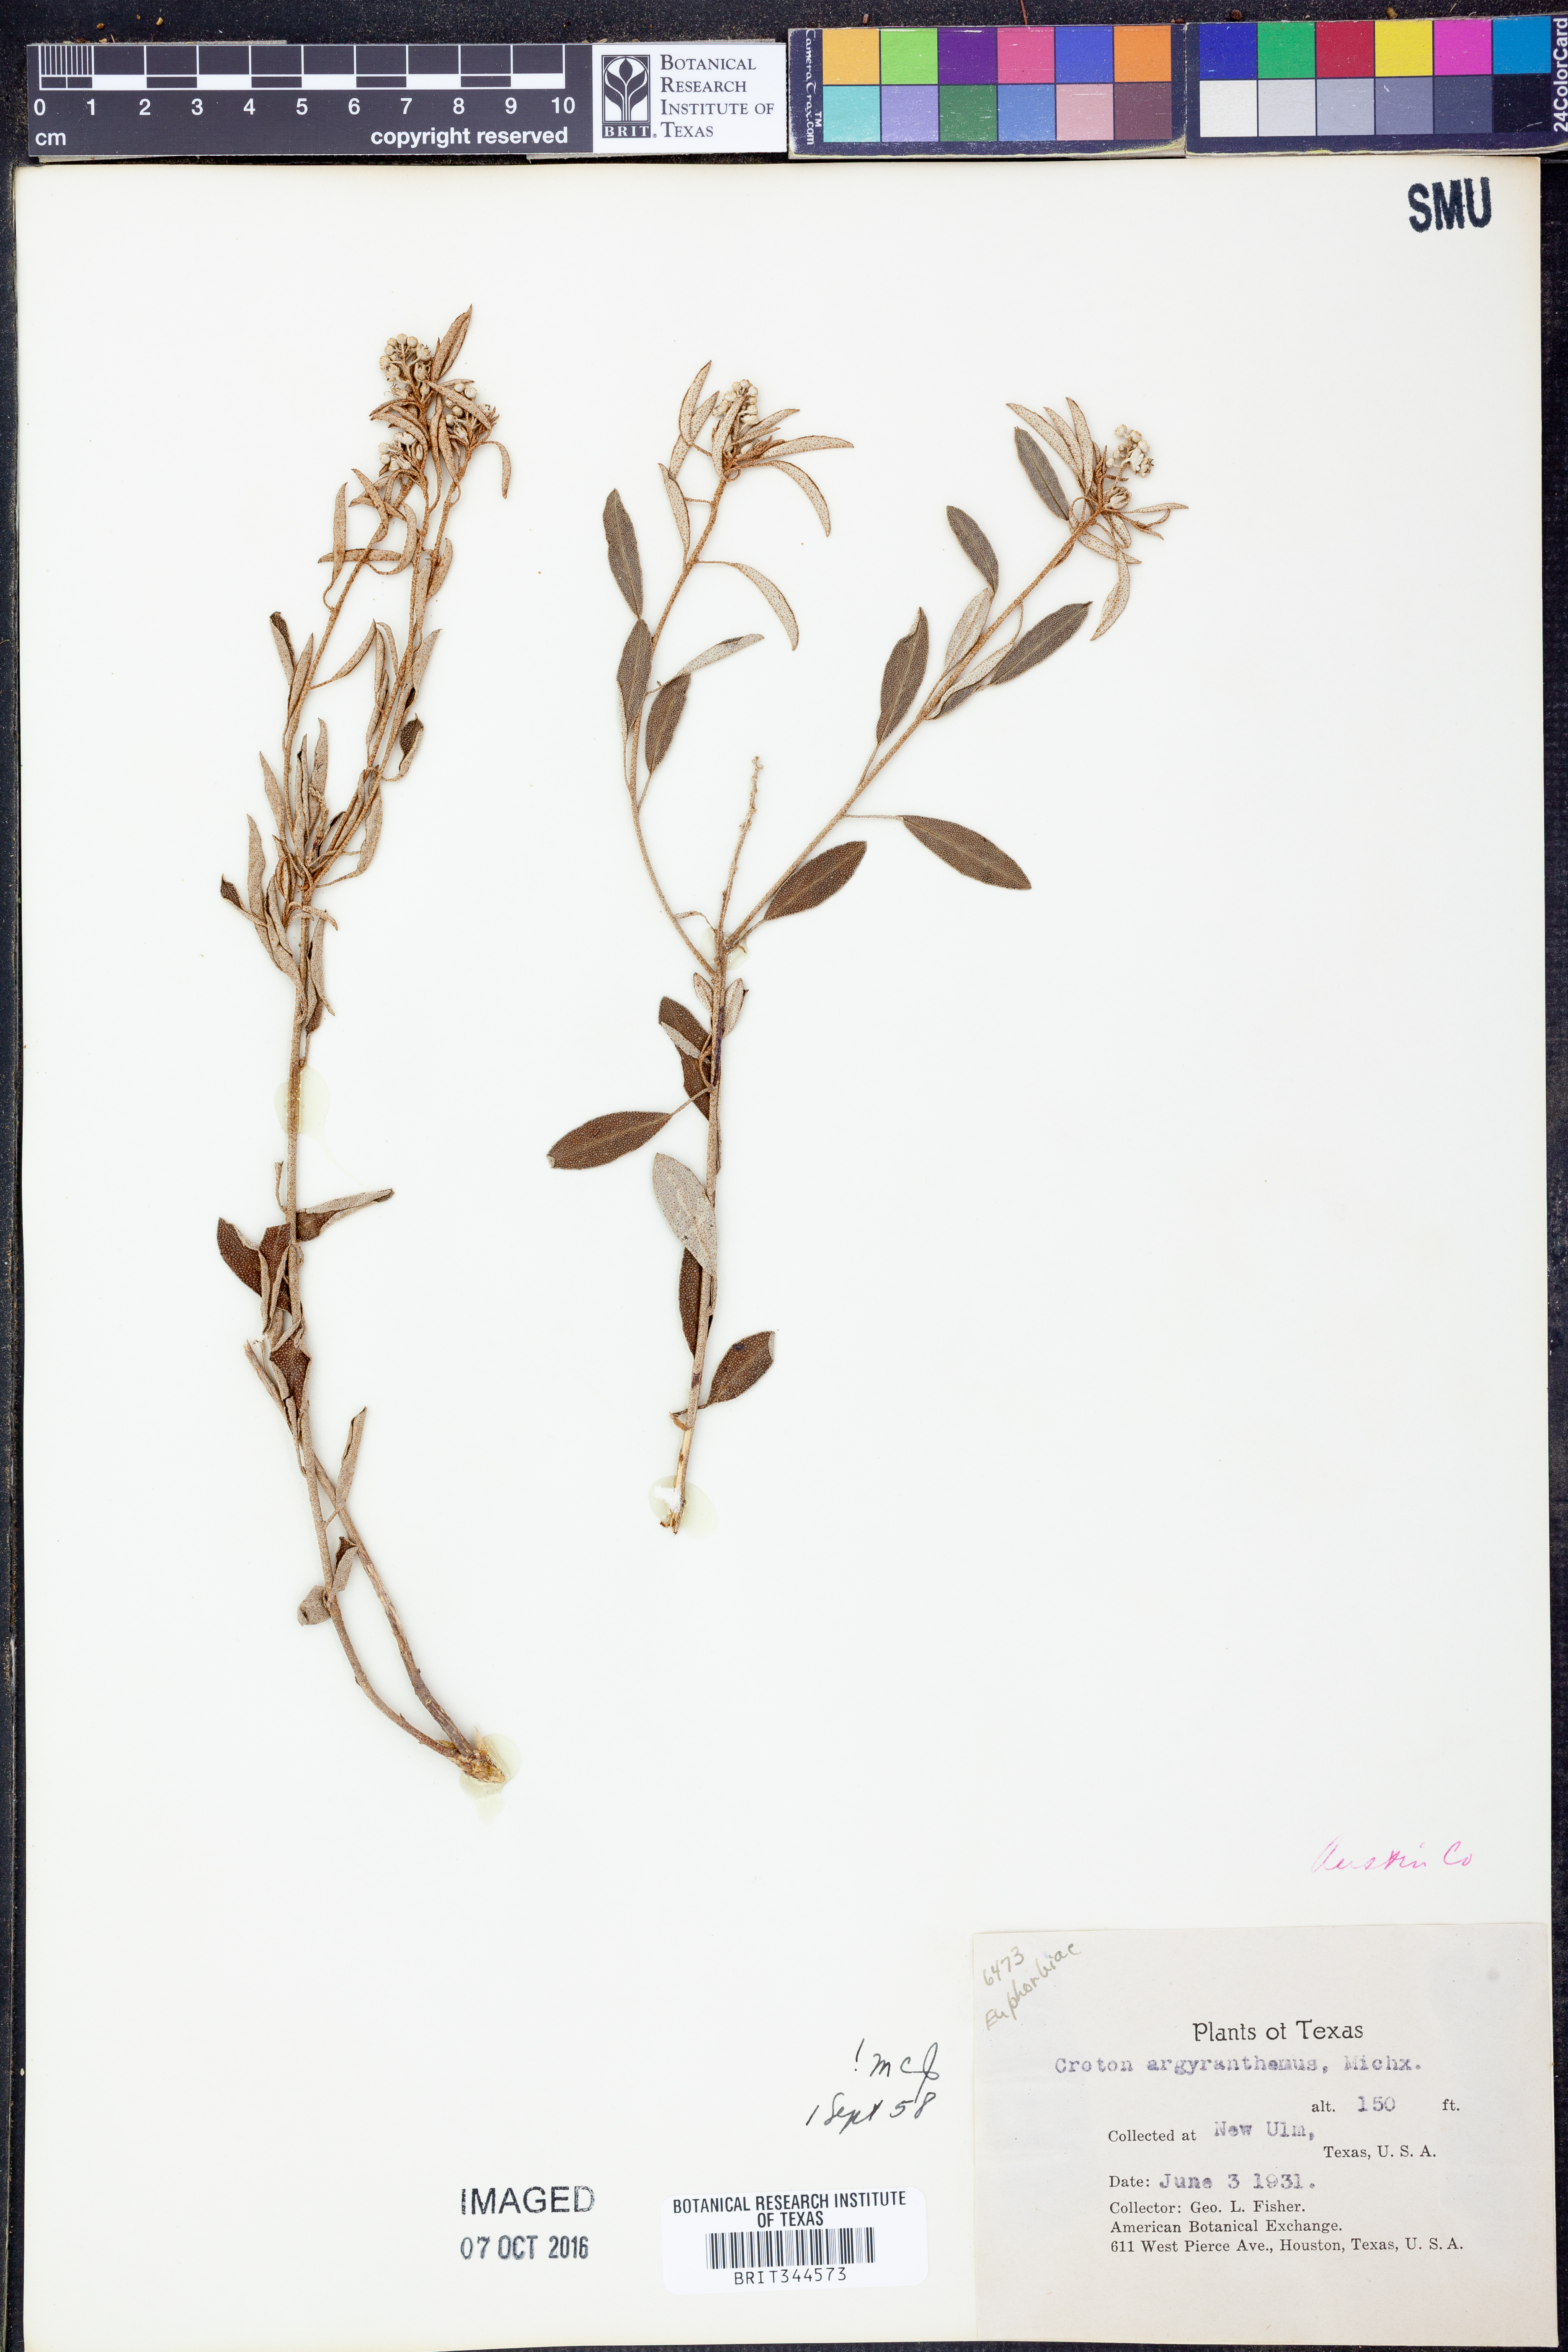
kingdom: Plantae
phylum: Tracheophyta
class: Magnoliopsida
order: Malpighiales
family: Euphorbiaceae
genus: Croton
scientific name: Croton argyranthemus
